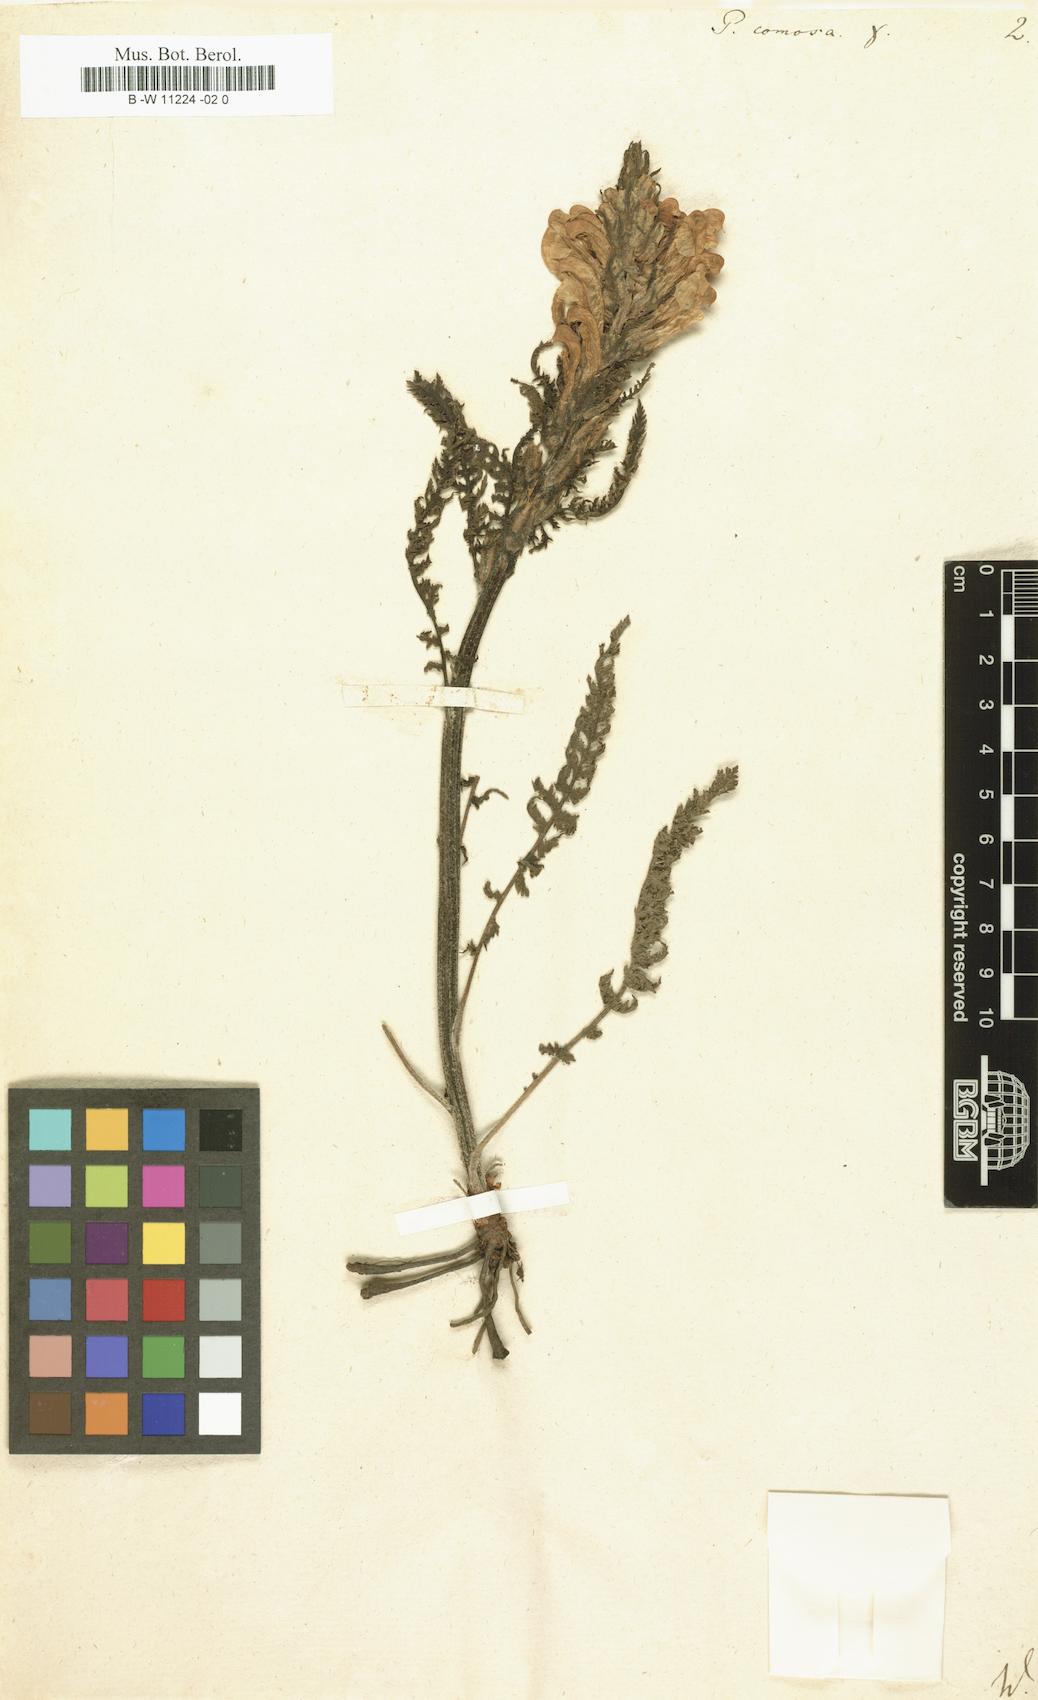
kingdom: Plantae
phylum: Tracheophyta
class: Magnoliopsida
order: Lamiales
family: Orobanchaceae
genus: Pedicularis
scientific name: Pedicularis comosa
